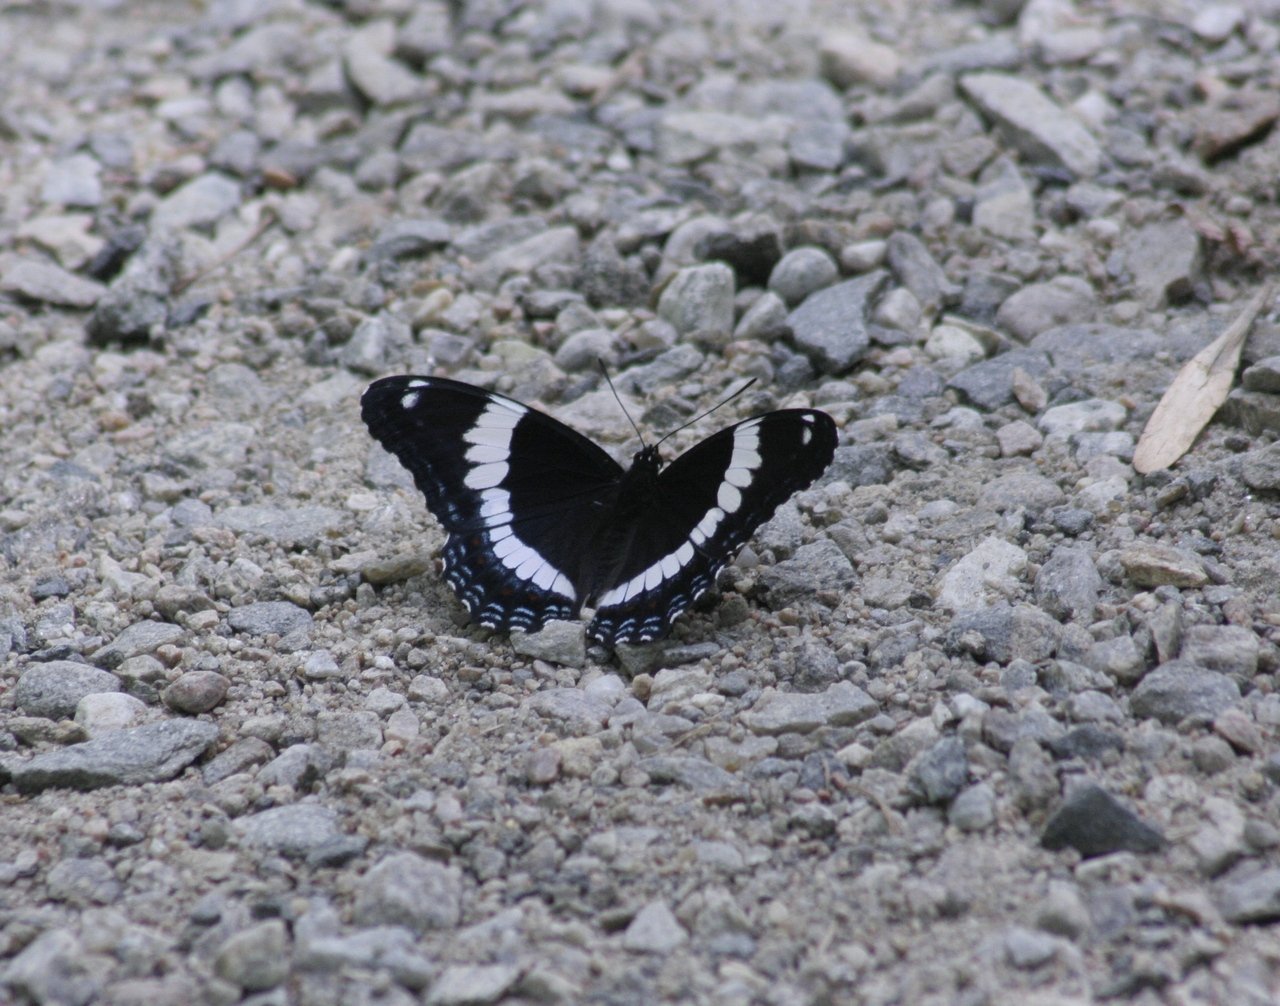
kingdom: Animalia
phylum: Arthropoda
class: Insecta
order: Lepidoptera
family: Nymphalidae
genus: Limenitis
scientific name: Limenitis arthemis
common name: Red-spotted Admiral
